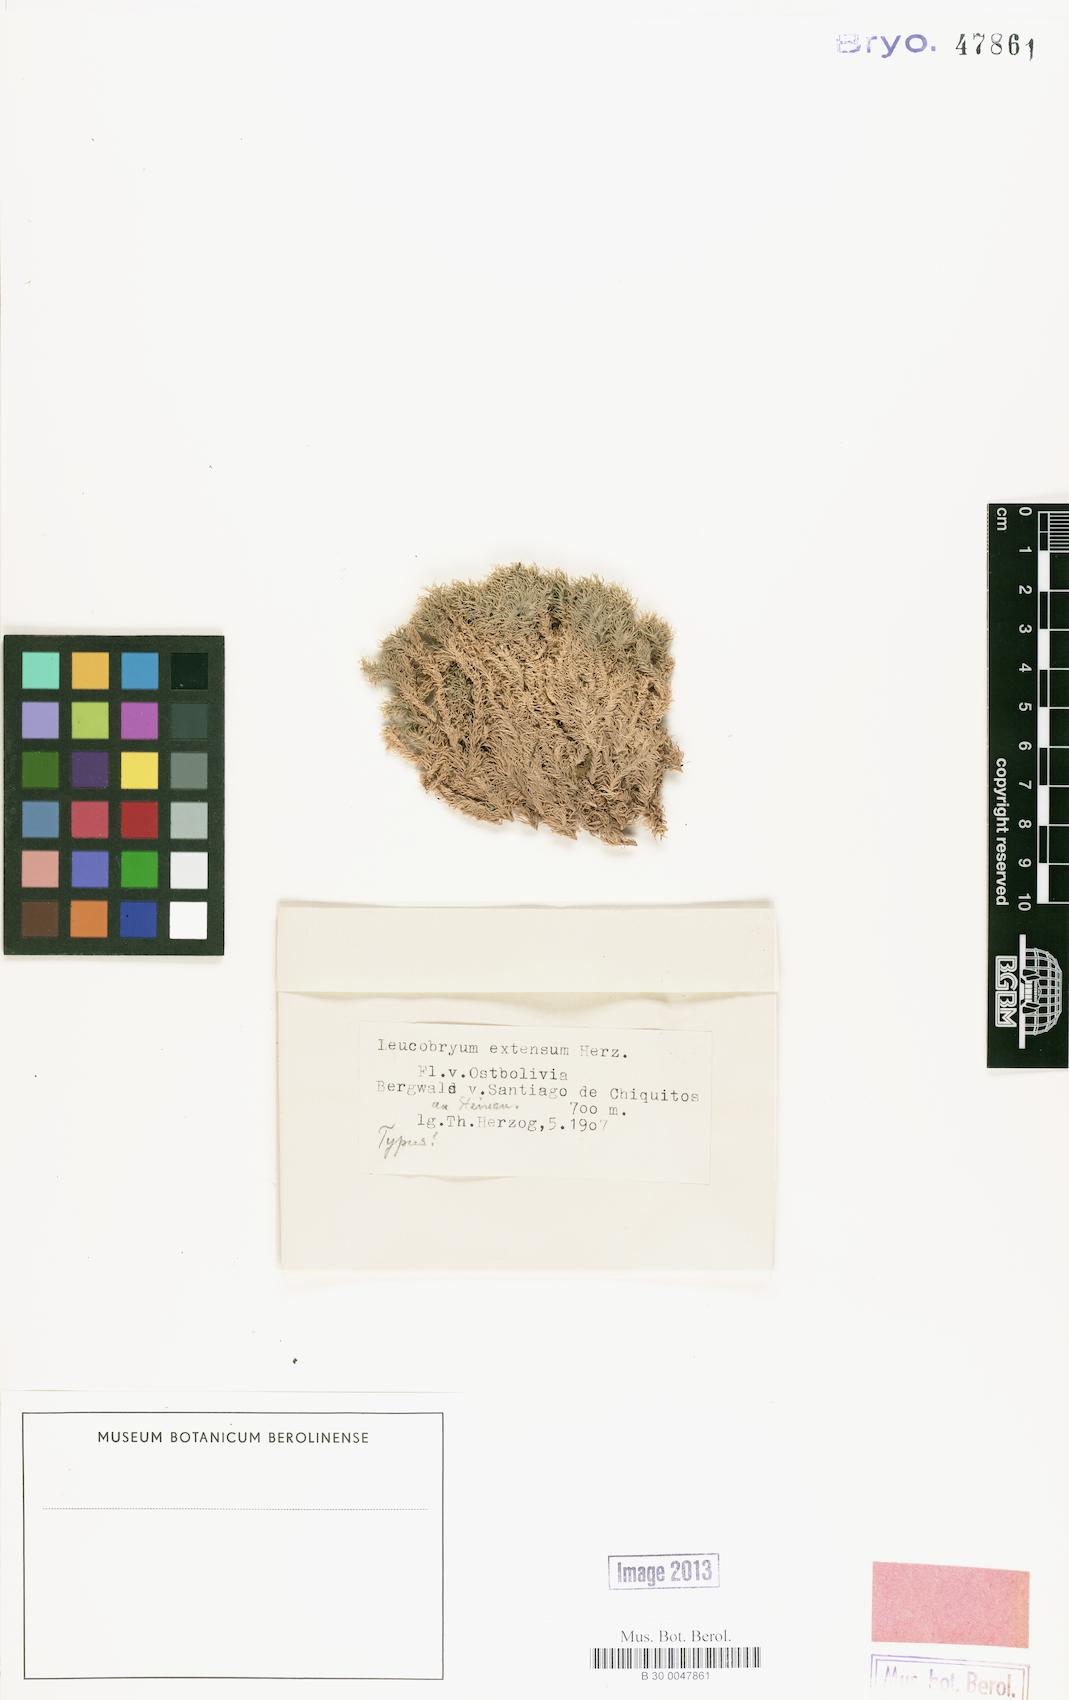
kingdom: Plantae
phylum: Bryophyta
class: Bryopsida
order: Dicranales
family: Leucobryaceae
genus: Leucobryum
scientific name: Leucobryum crispum
